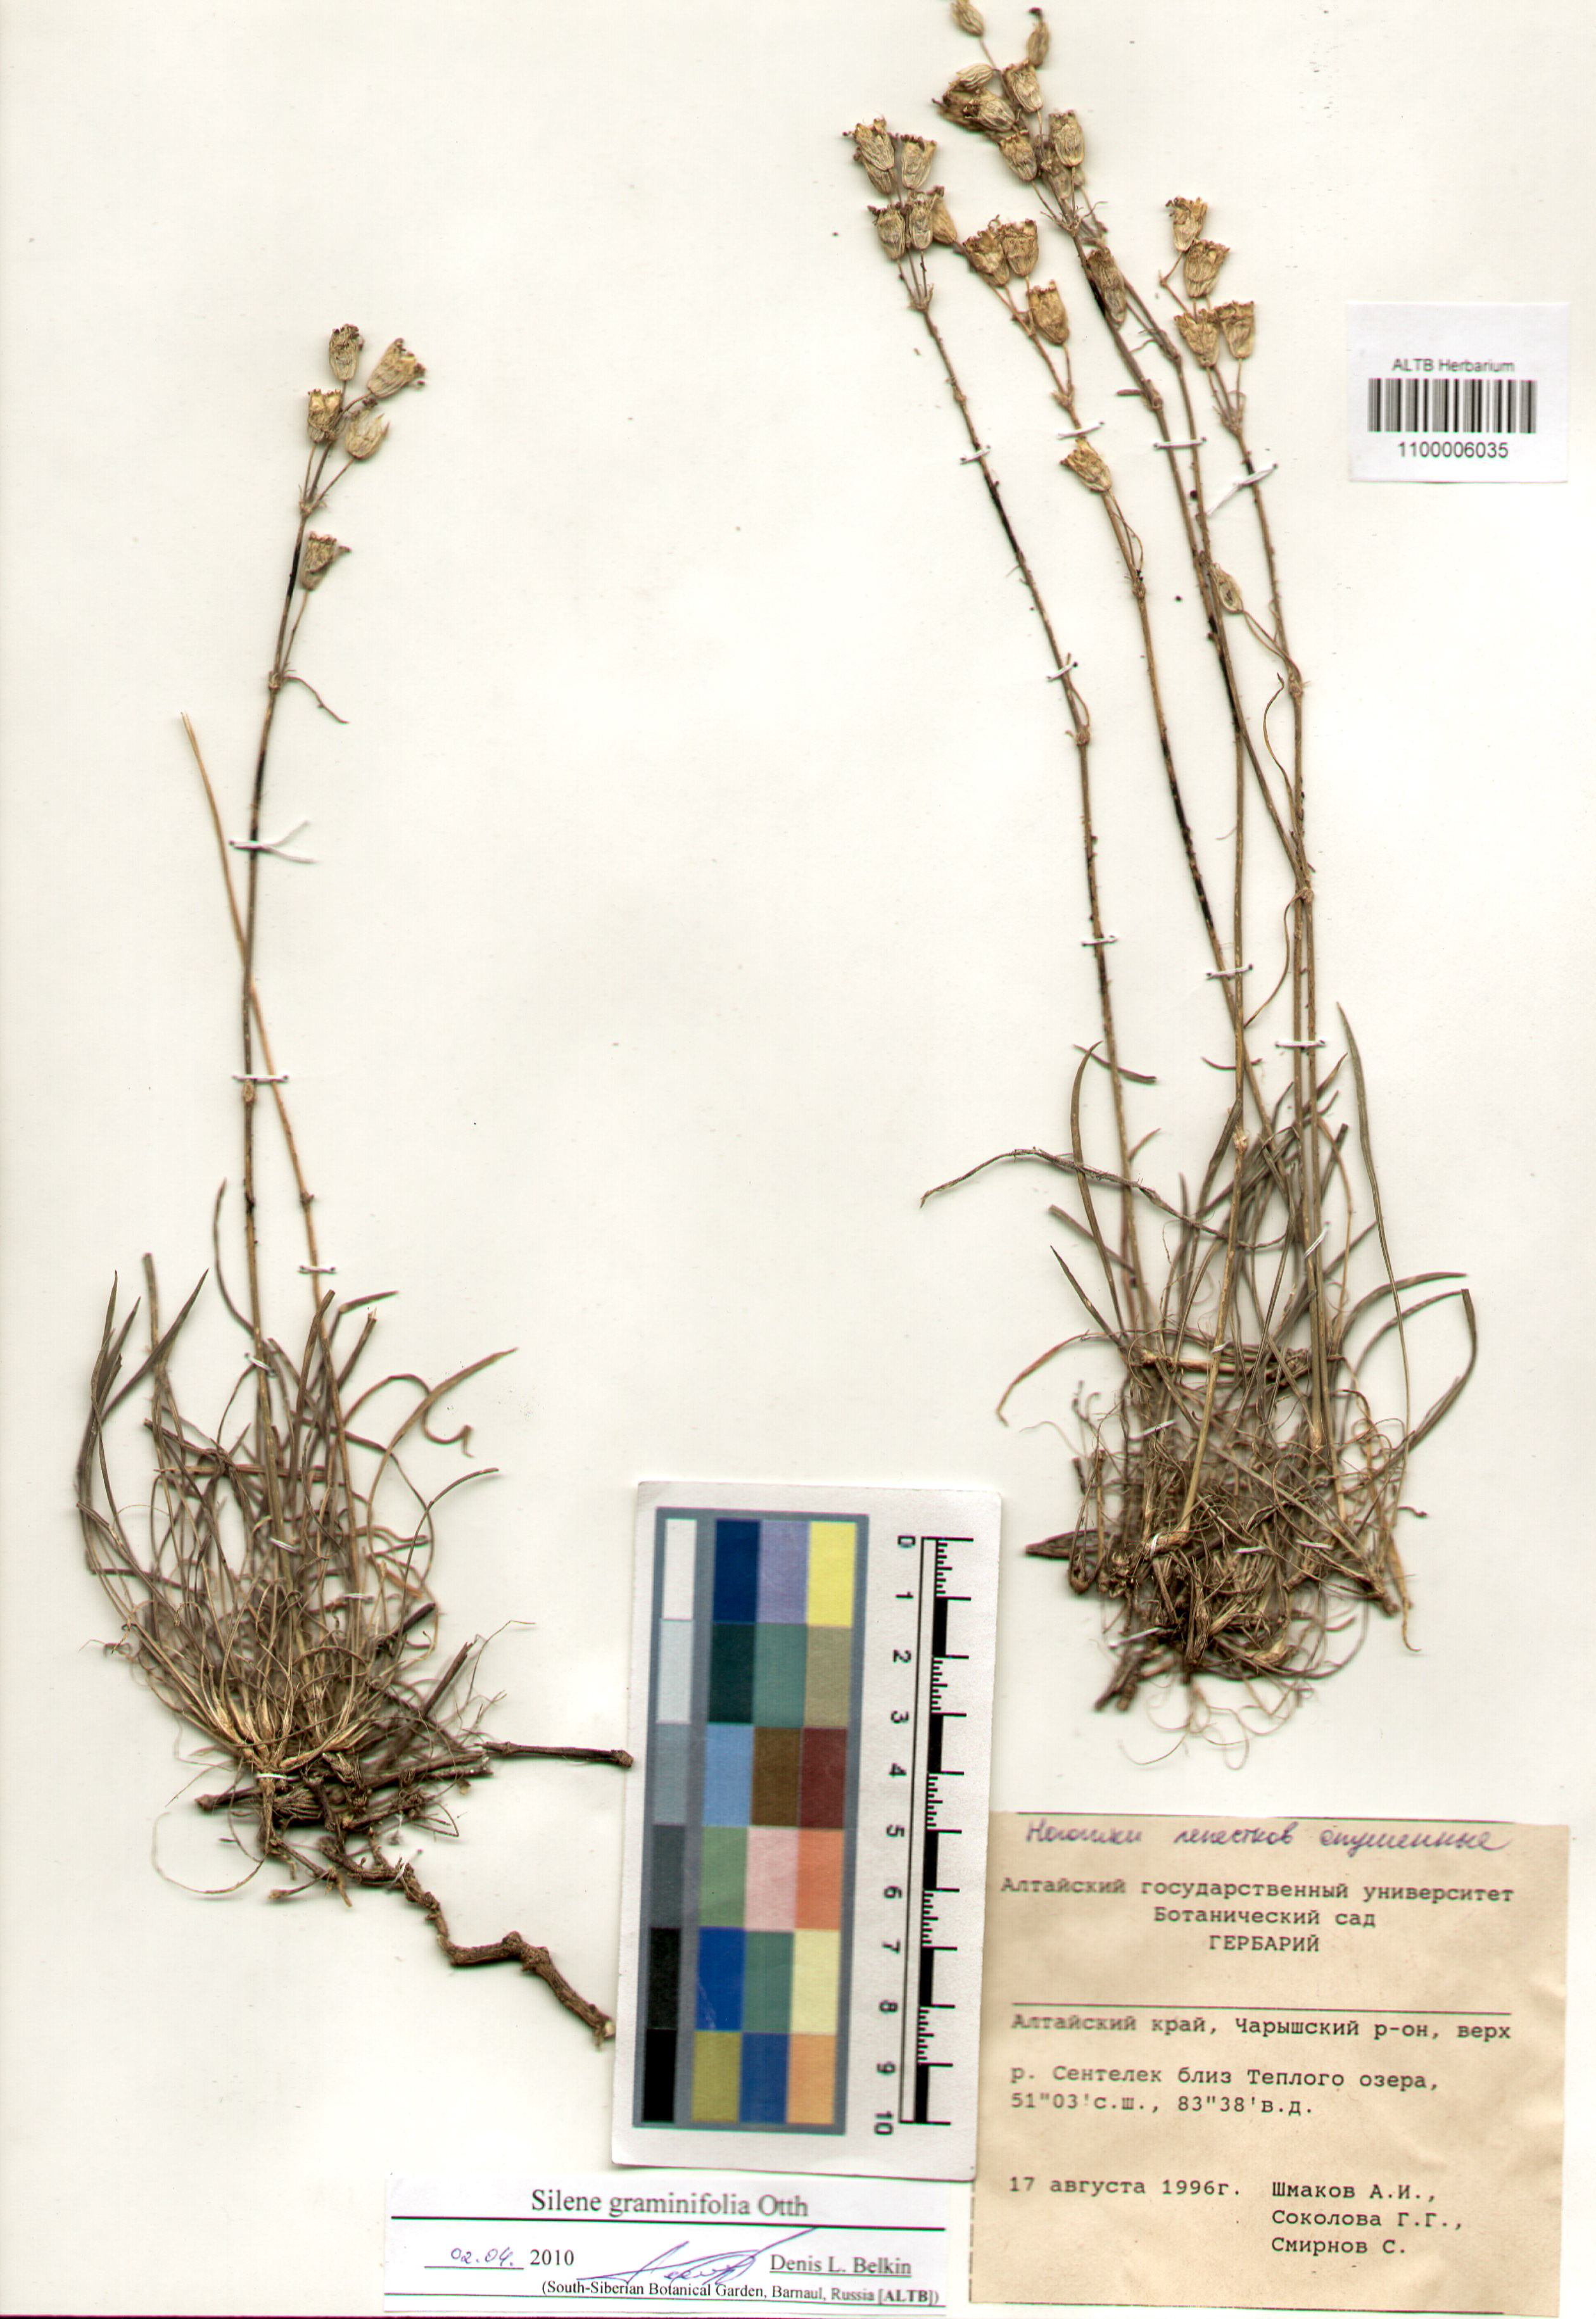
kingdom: Plantae
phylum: Tracheophyta
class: Magnoliopsida
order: Caryophyllales
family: Caryophyllaceae
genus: Silene
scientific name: Silene graminifolia
